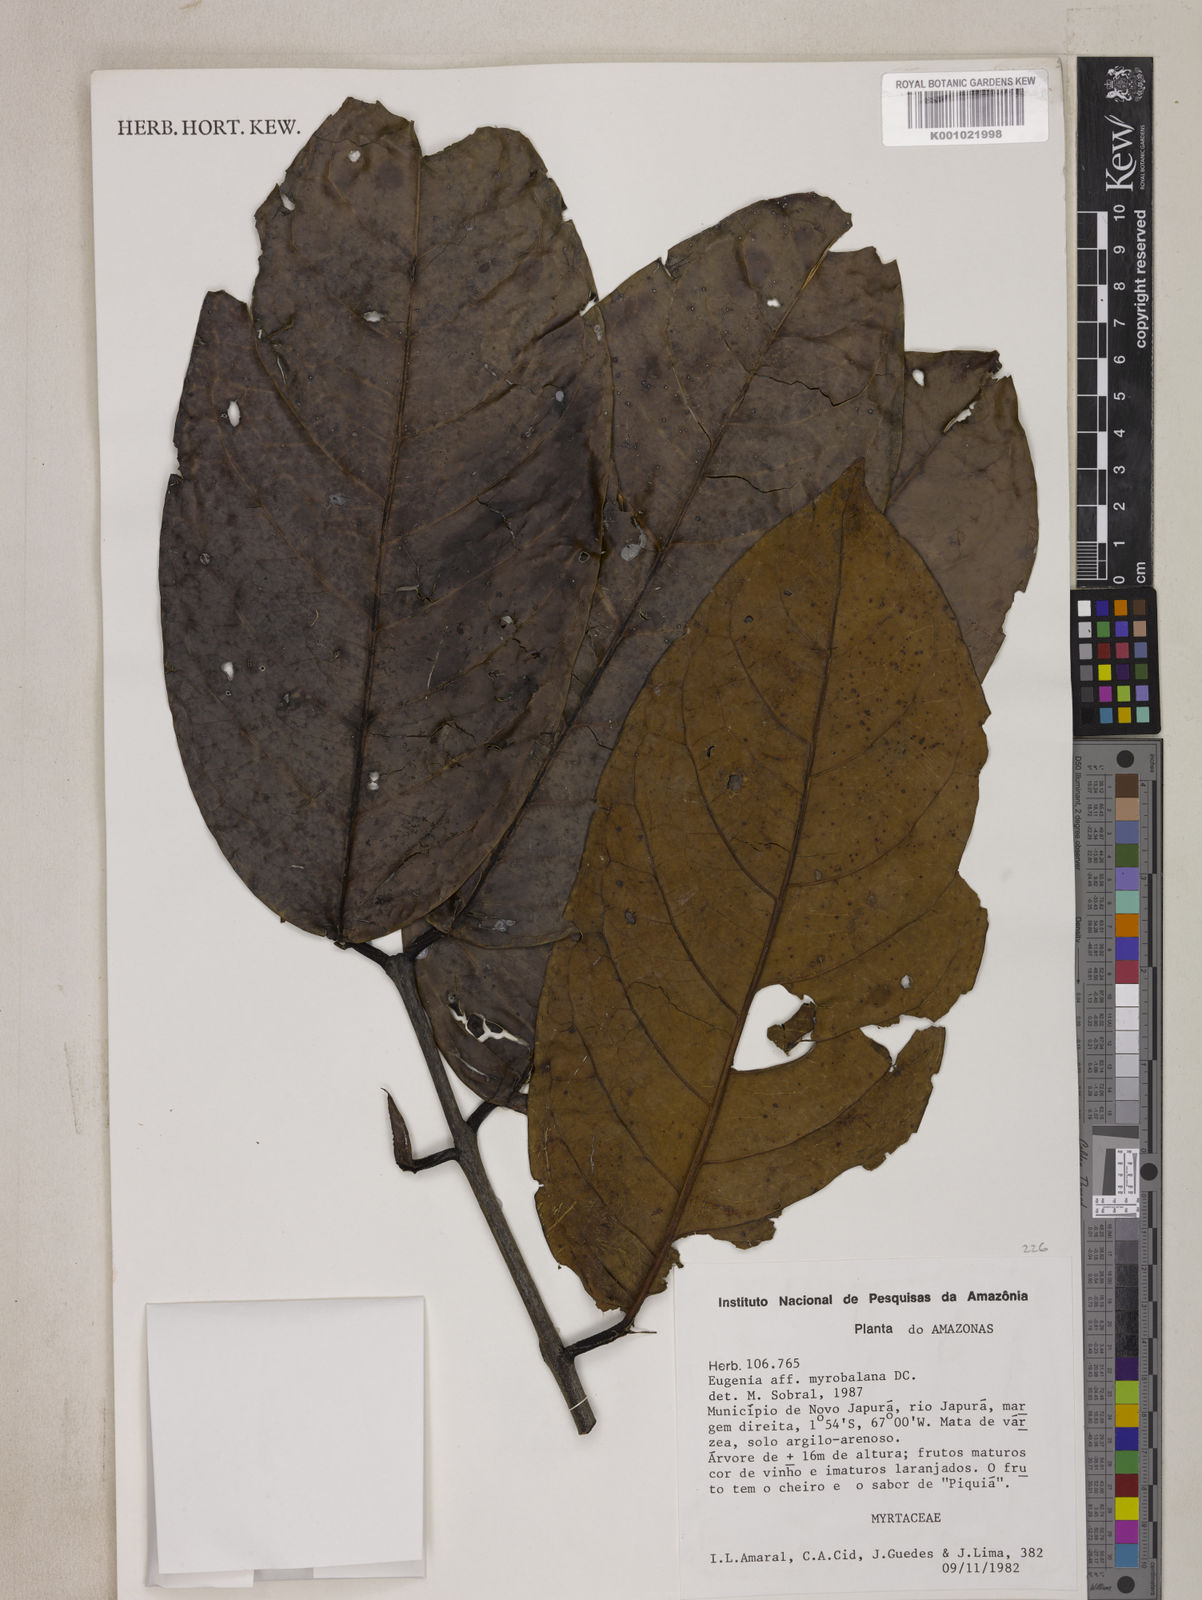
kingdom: Plantae
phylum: Tracheophyta
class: Magnoliopsida
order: Myrtales
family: Myrtaceae
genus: Eugenia
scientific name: Eugenia myrobalana
